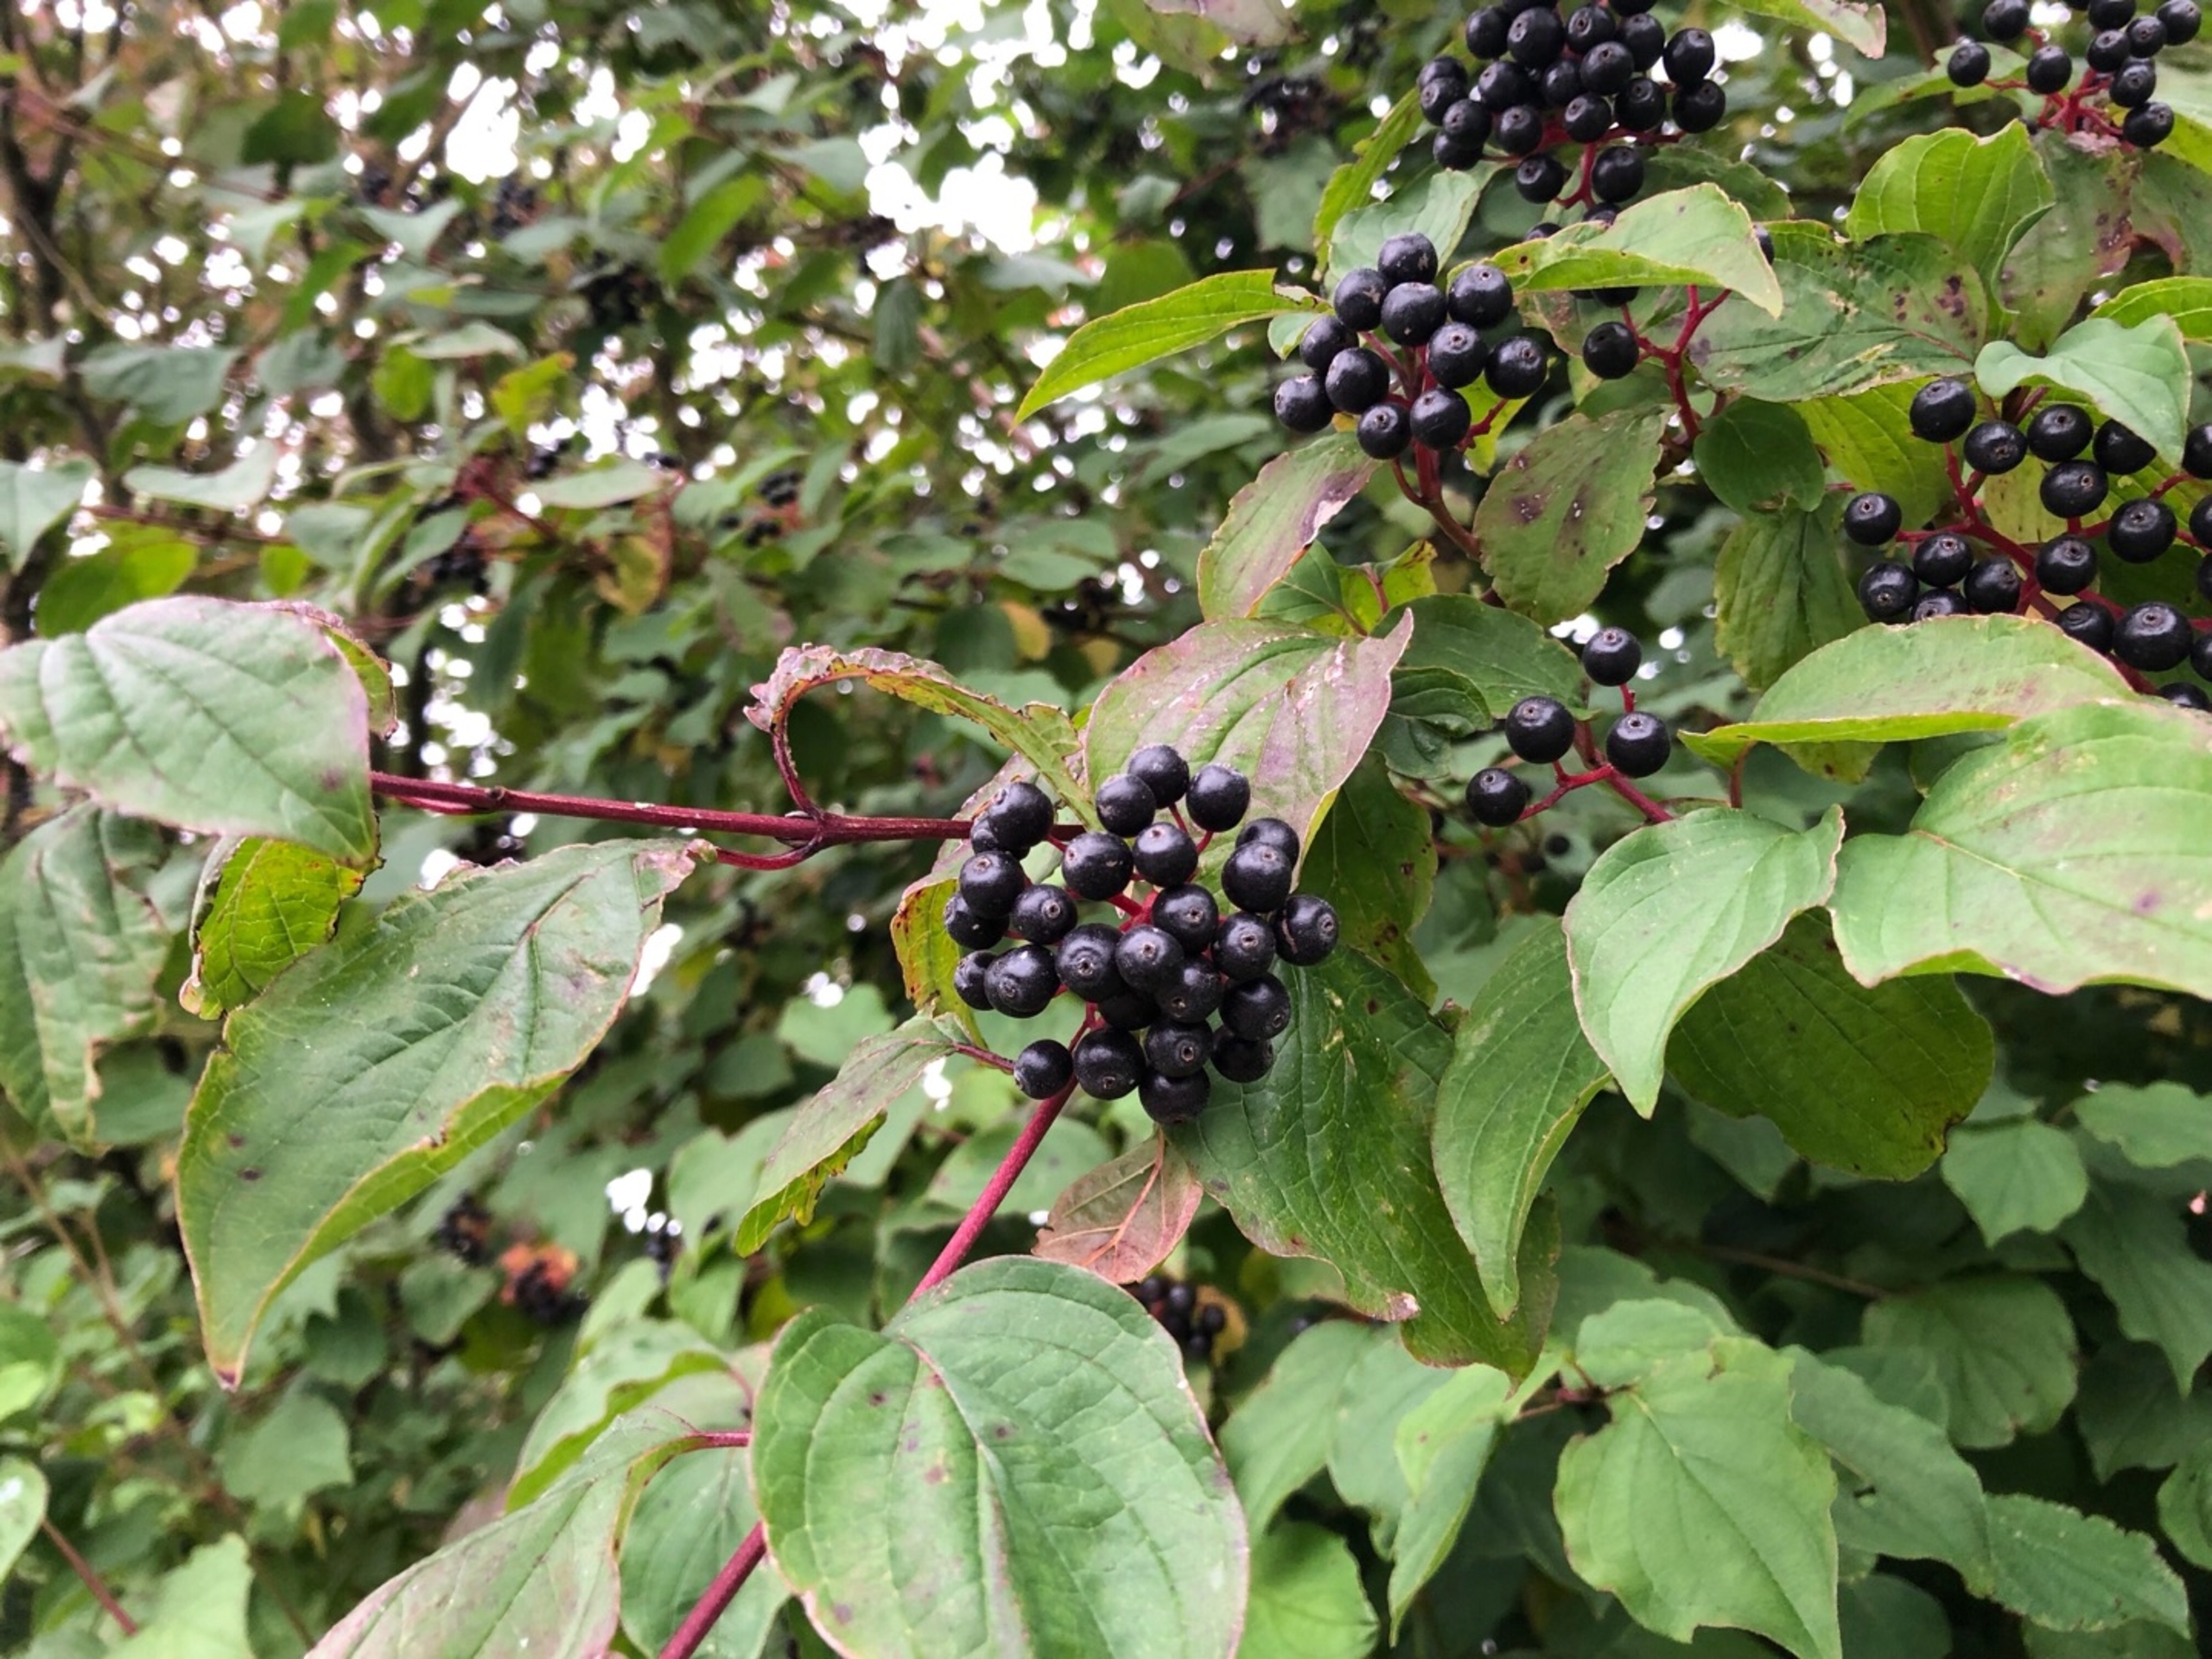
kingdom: Plantae
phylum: Tracheophyta
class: Magnoliopsida
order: Cornales
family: Cornaceae
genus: Cornus
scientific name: Cornus sanguinea
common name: Rød kornel
